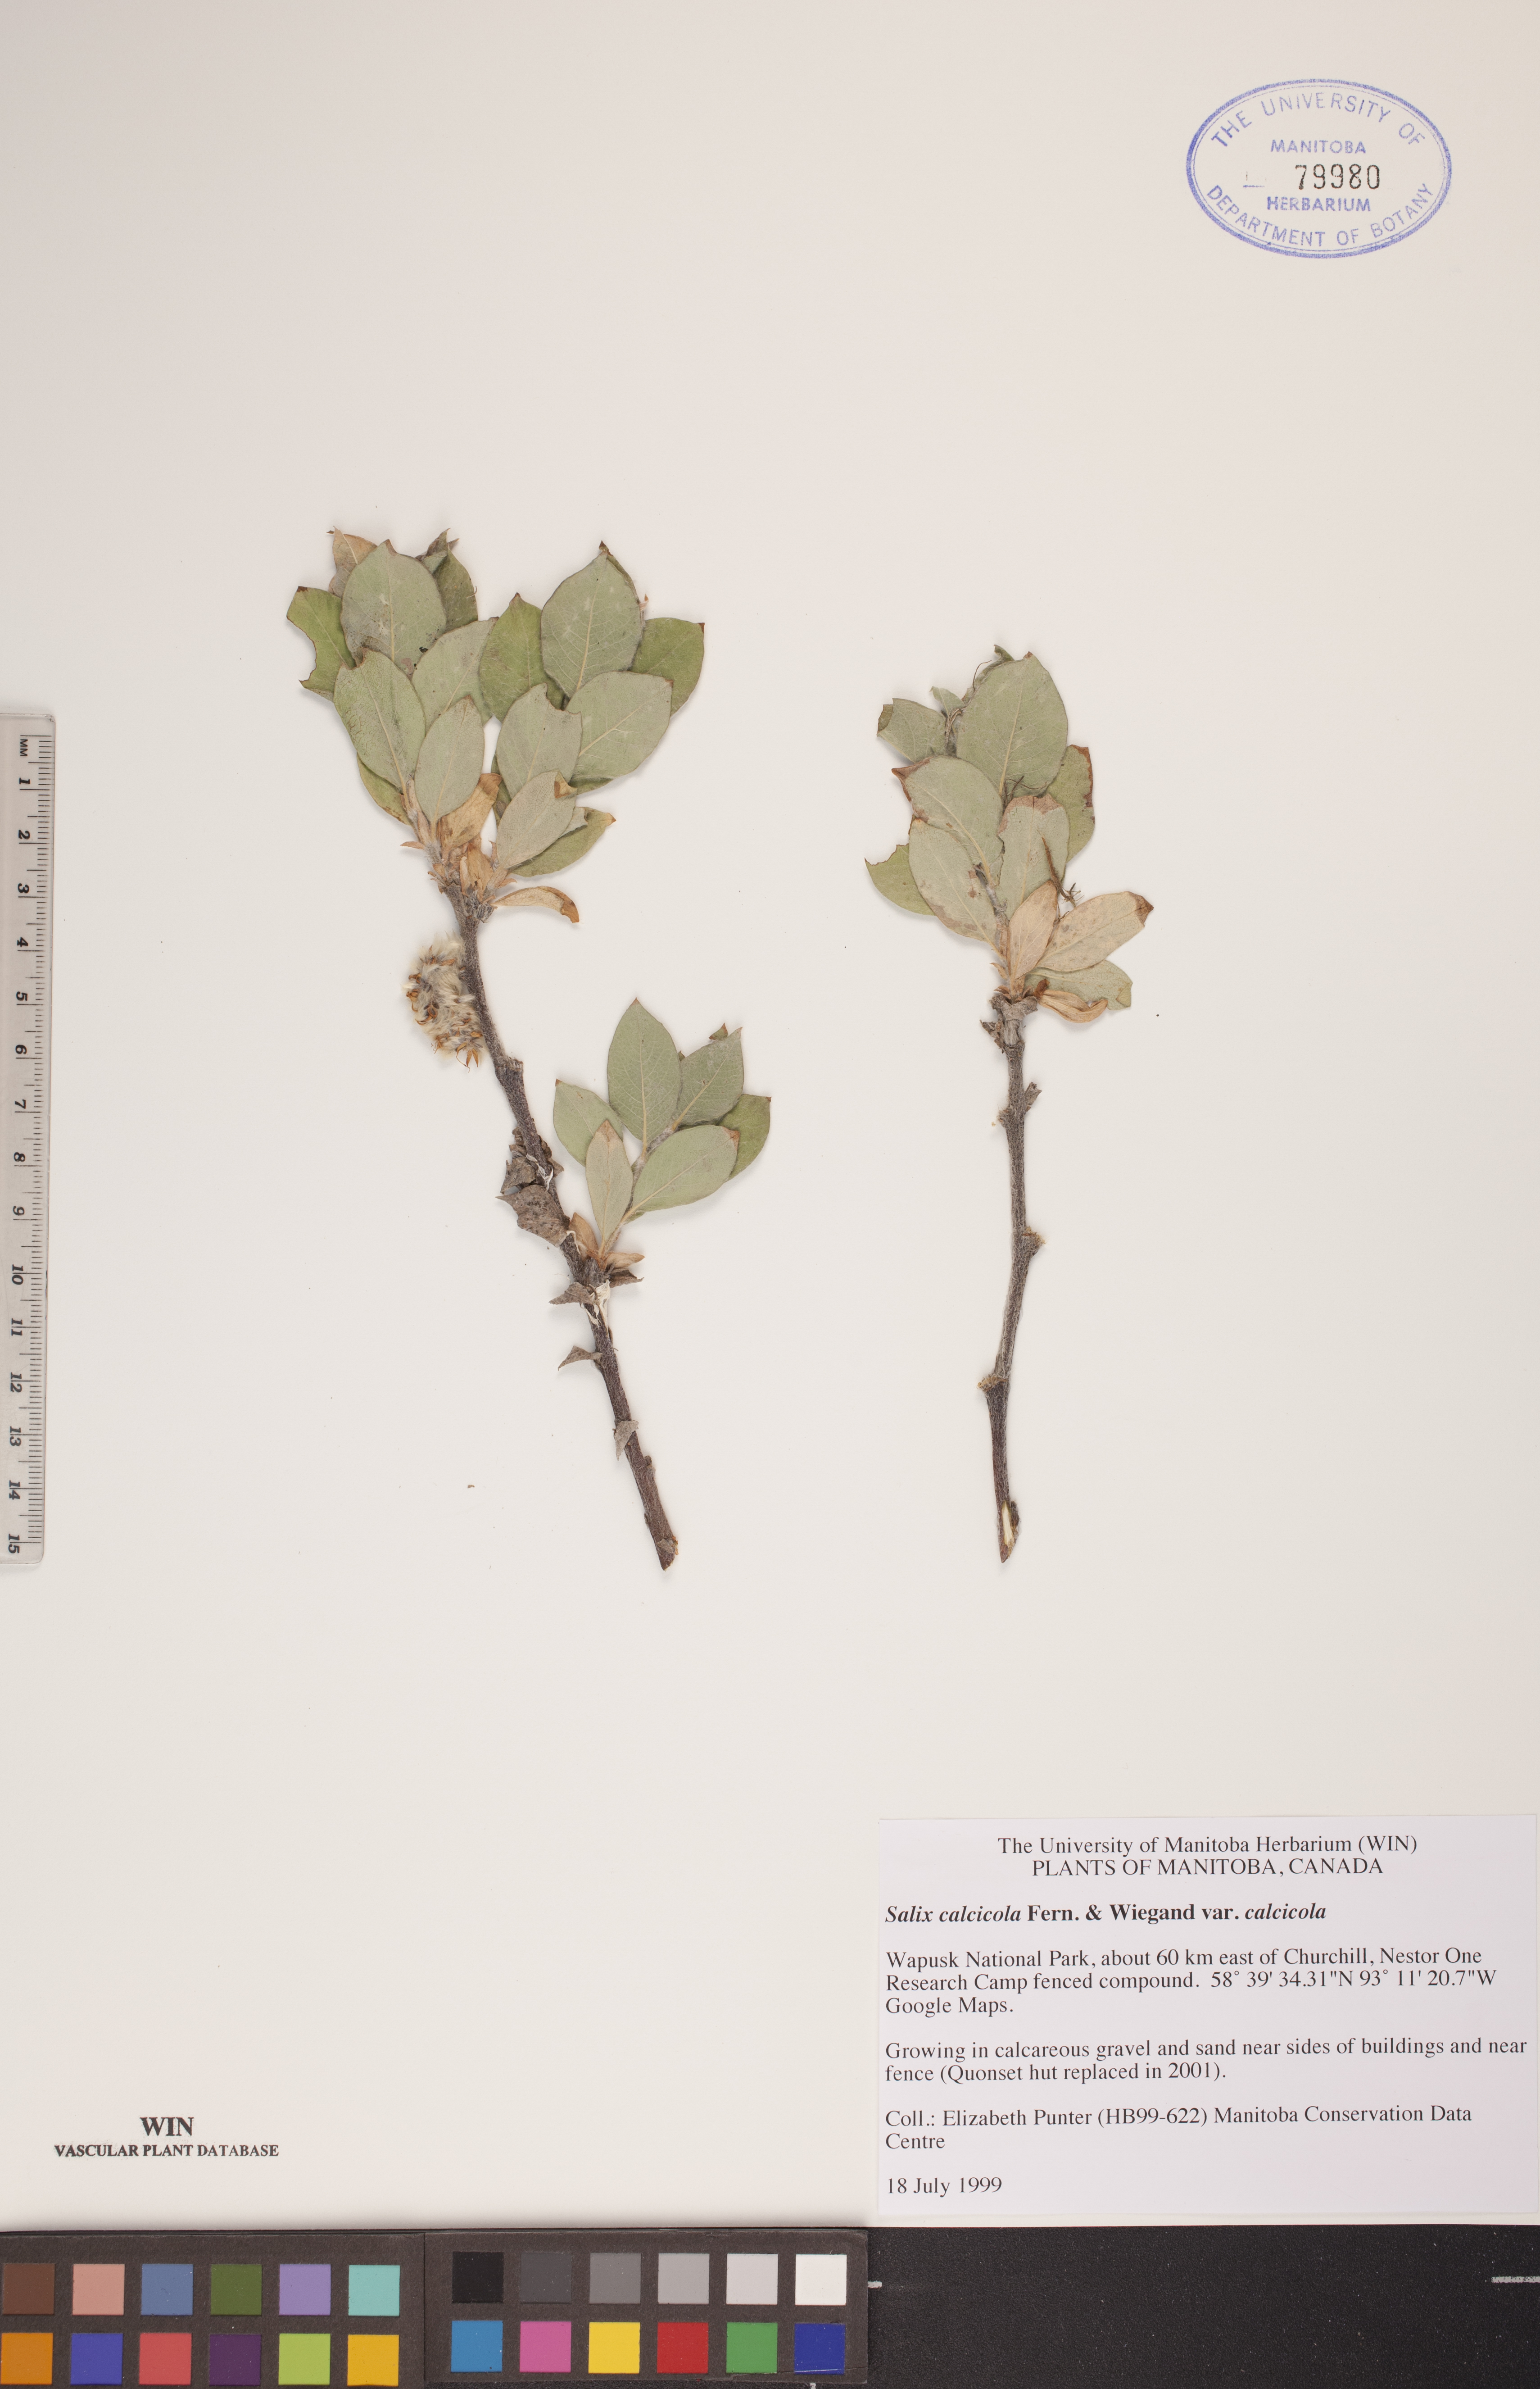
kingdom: Plantae
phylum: Tracheophyta
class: Magnoliopsida
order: Malpighiales
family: Salicaceae
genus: Salix
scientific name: Salix calcicola
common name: Calcareous willow
